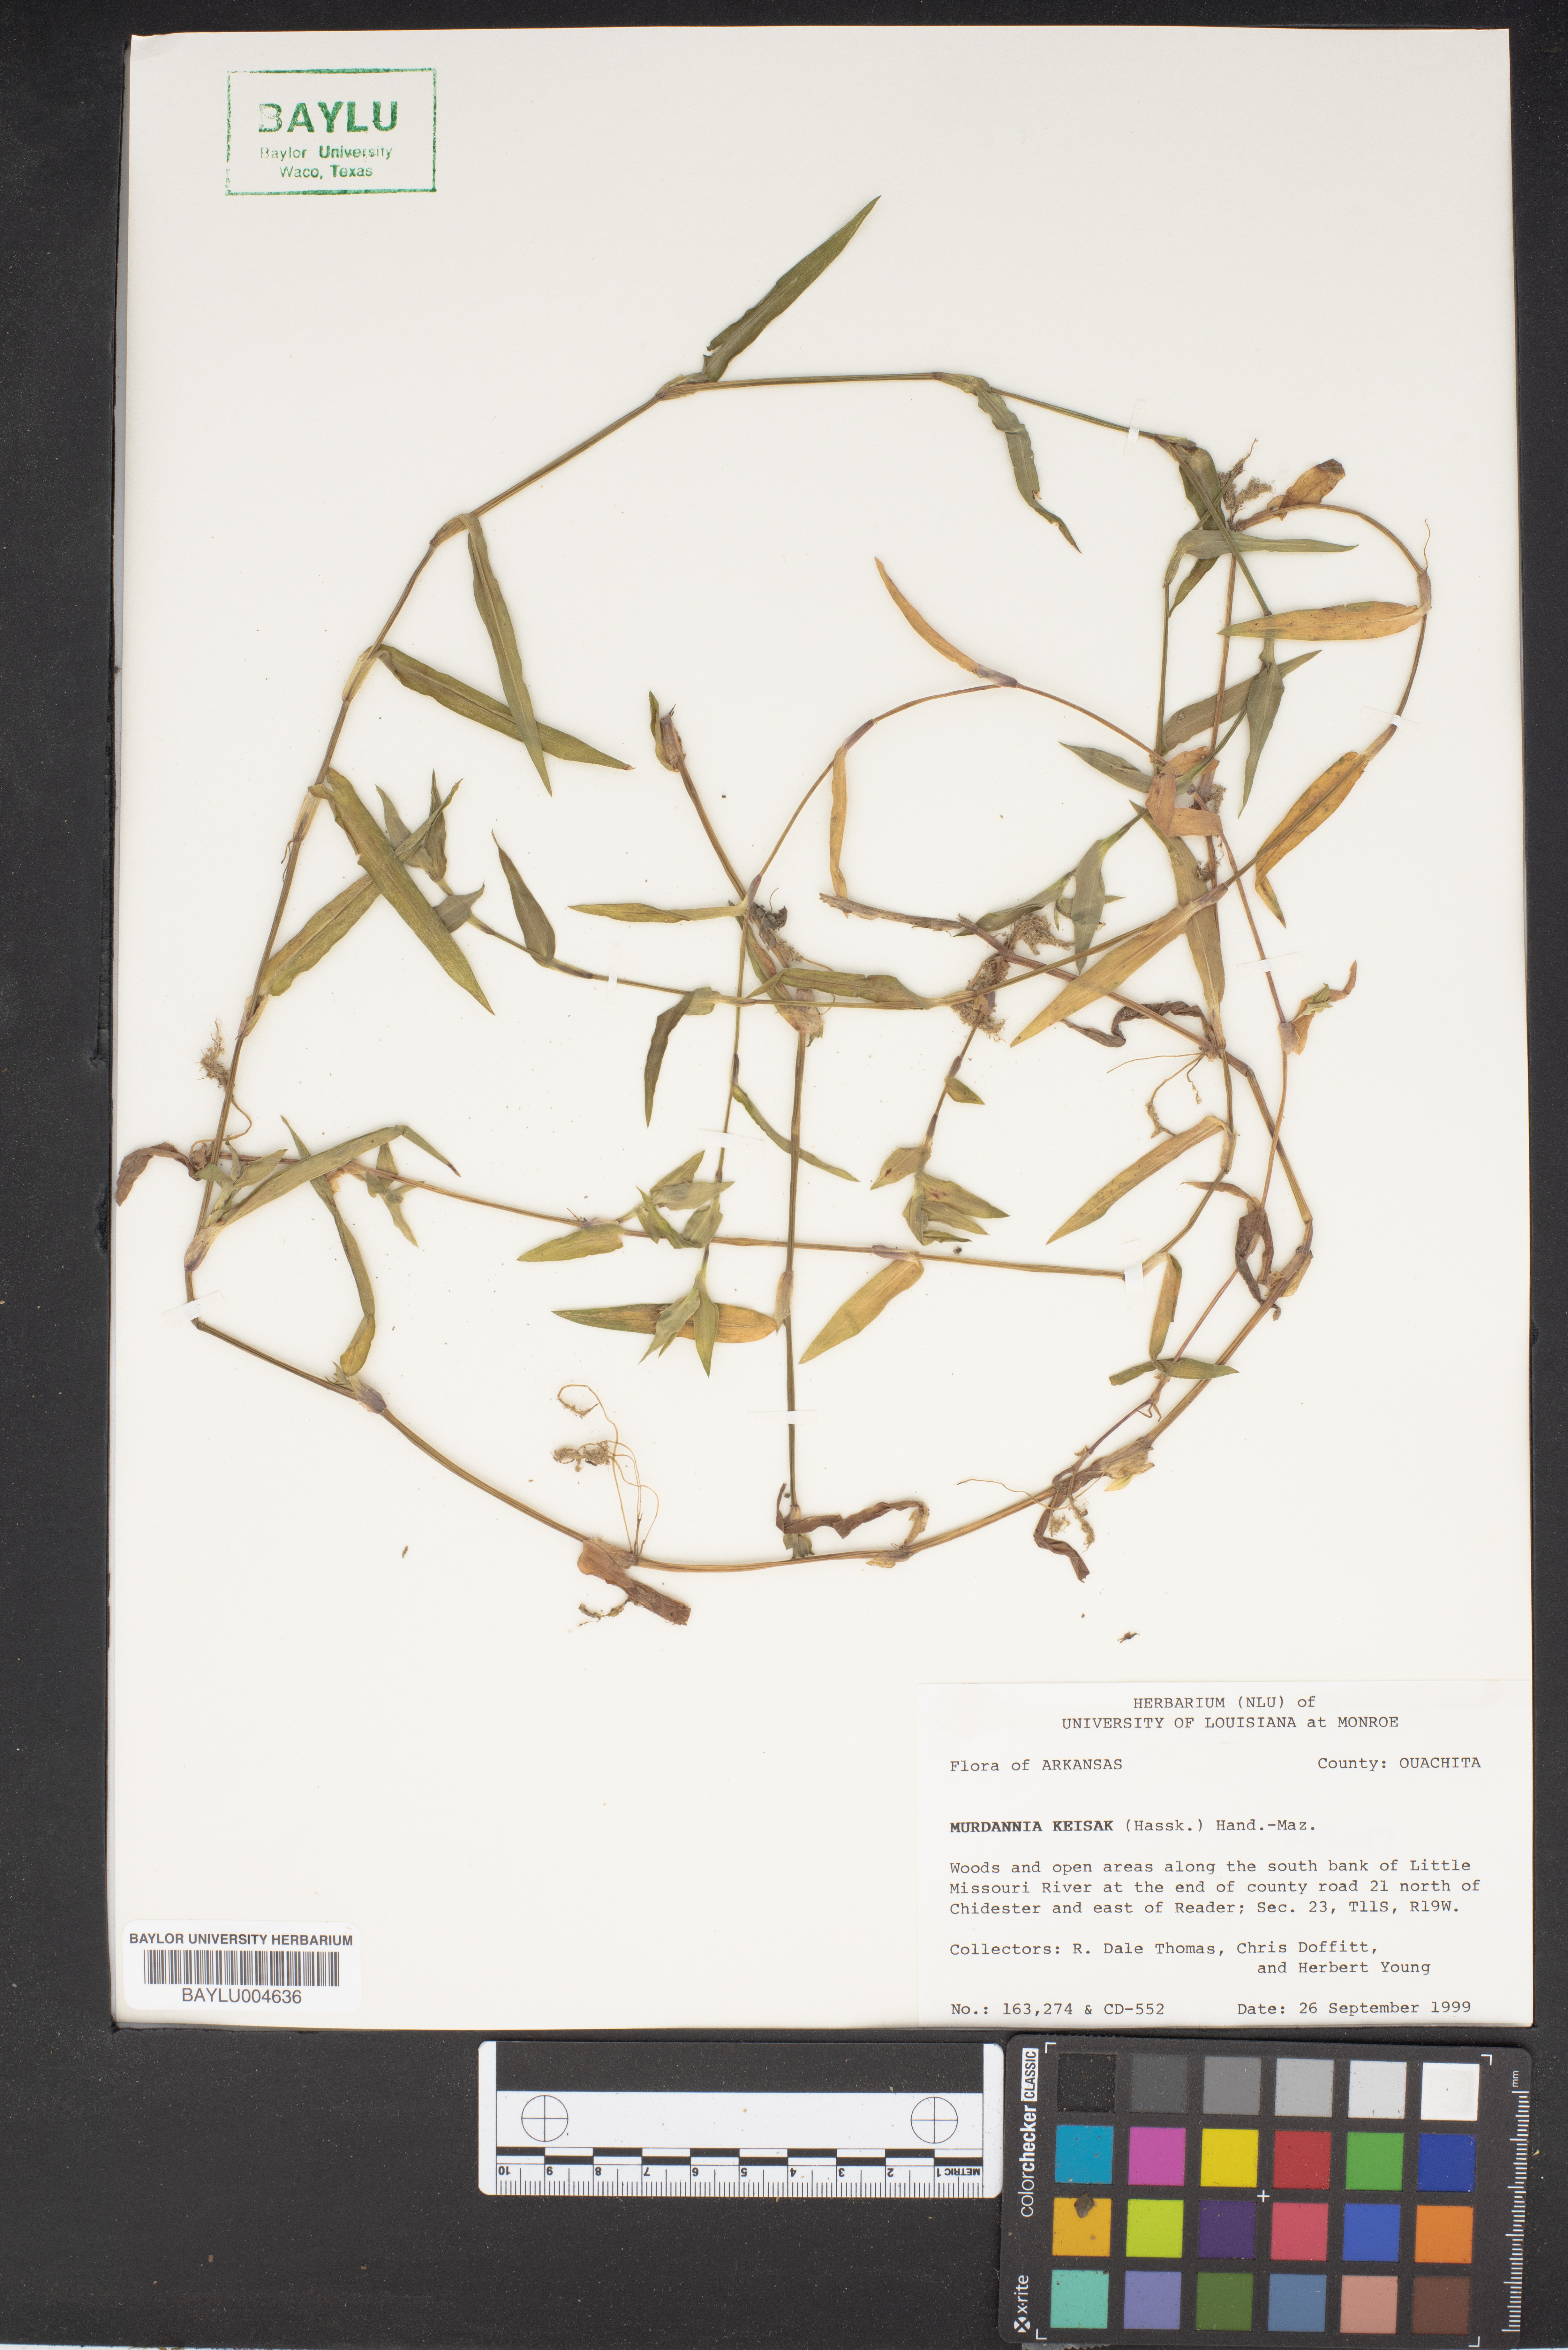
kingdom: Plantae
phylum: Tracheophyta
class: Liliopsida
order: Commelinales
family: Commelinaceae
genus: Murdannia
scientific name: Murdannia keisak
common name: Wartremoving herb
